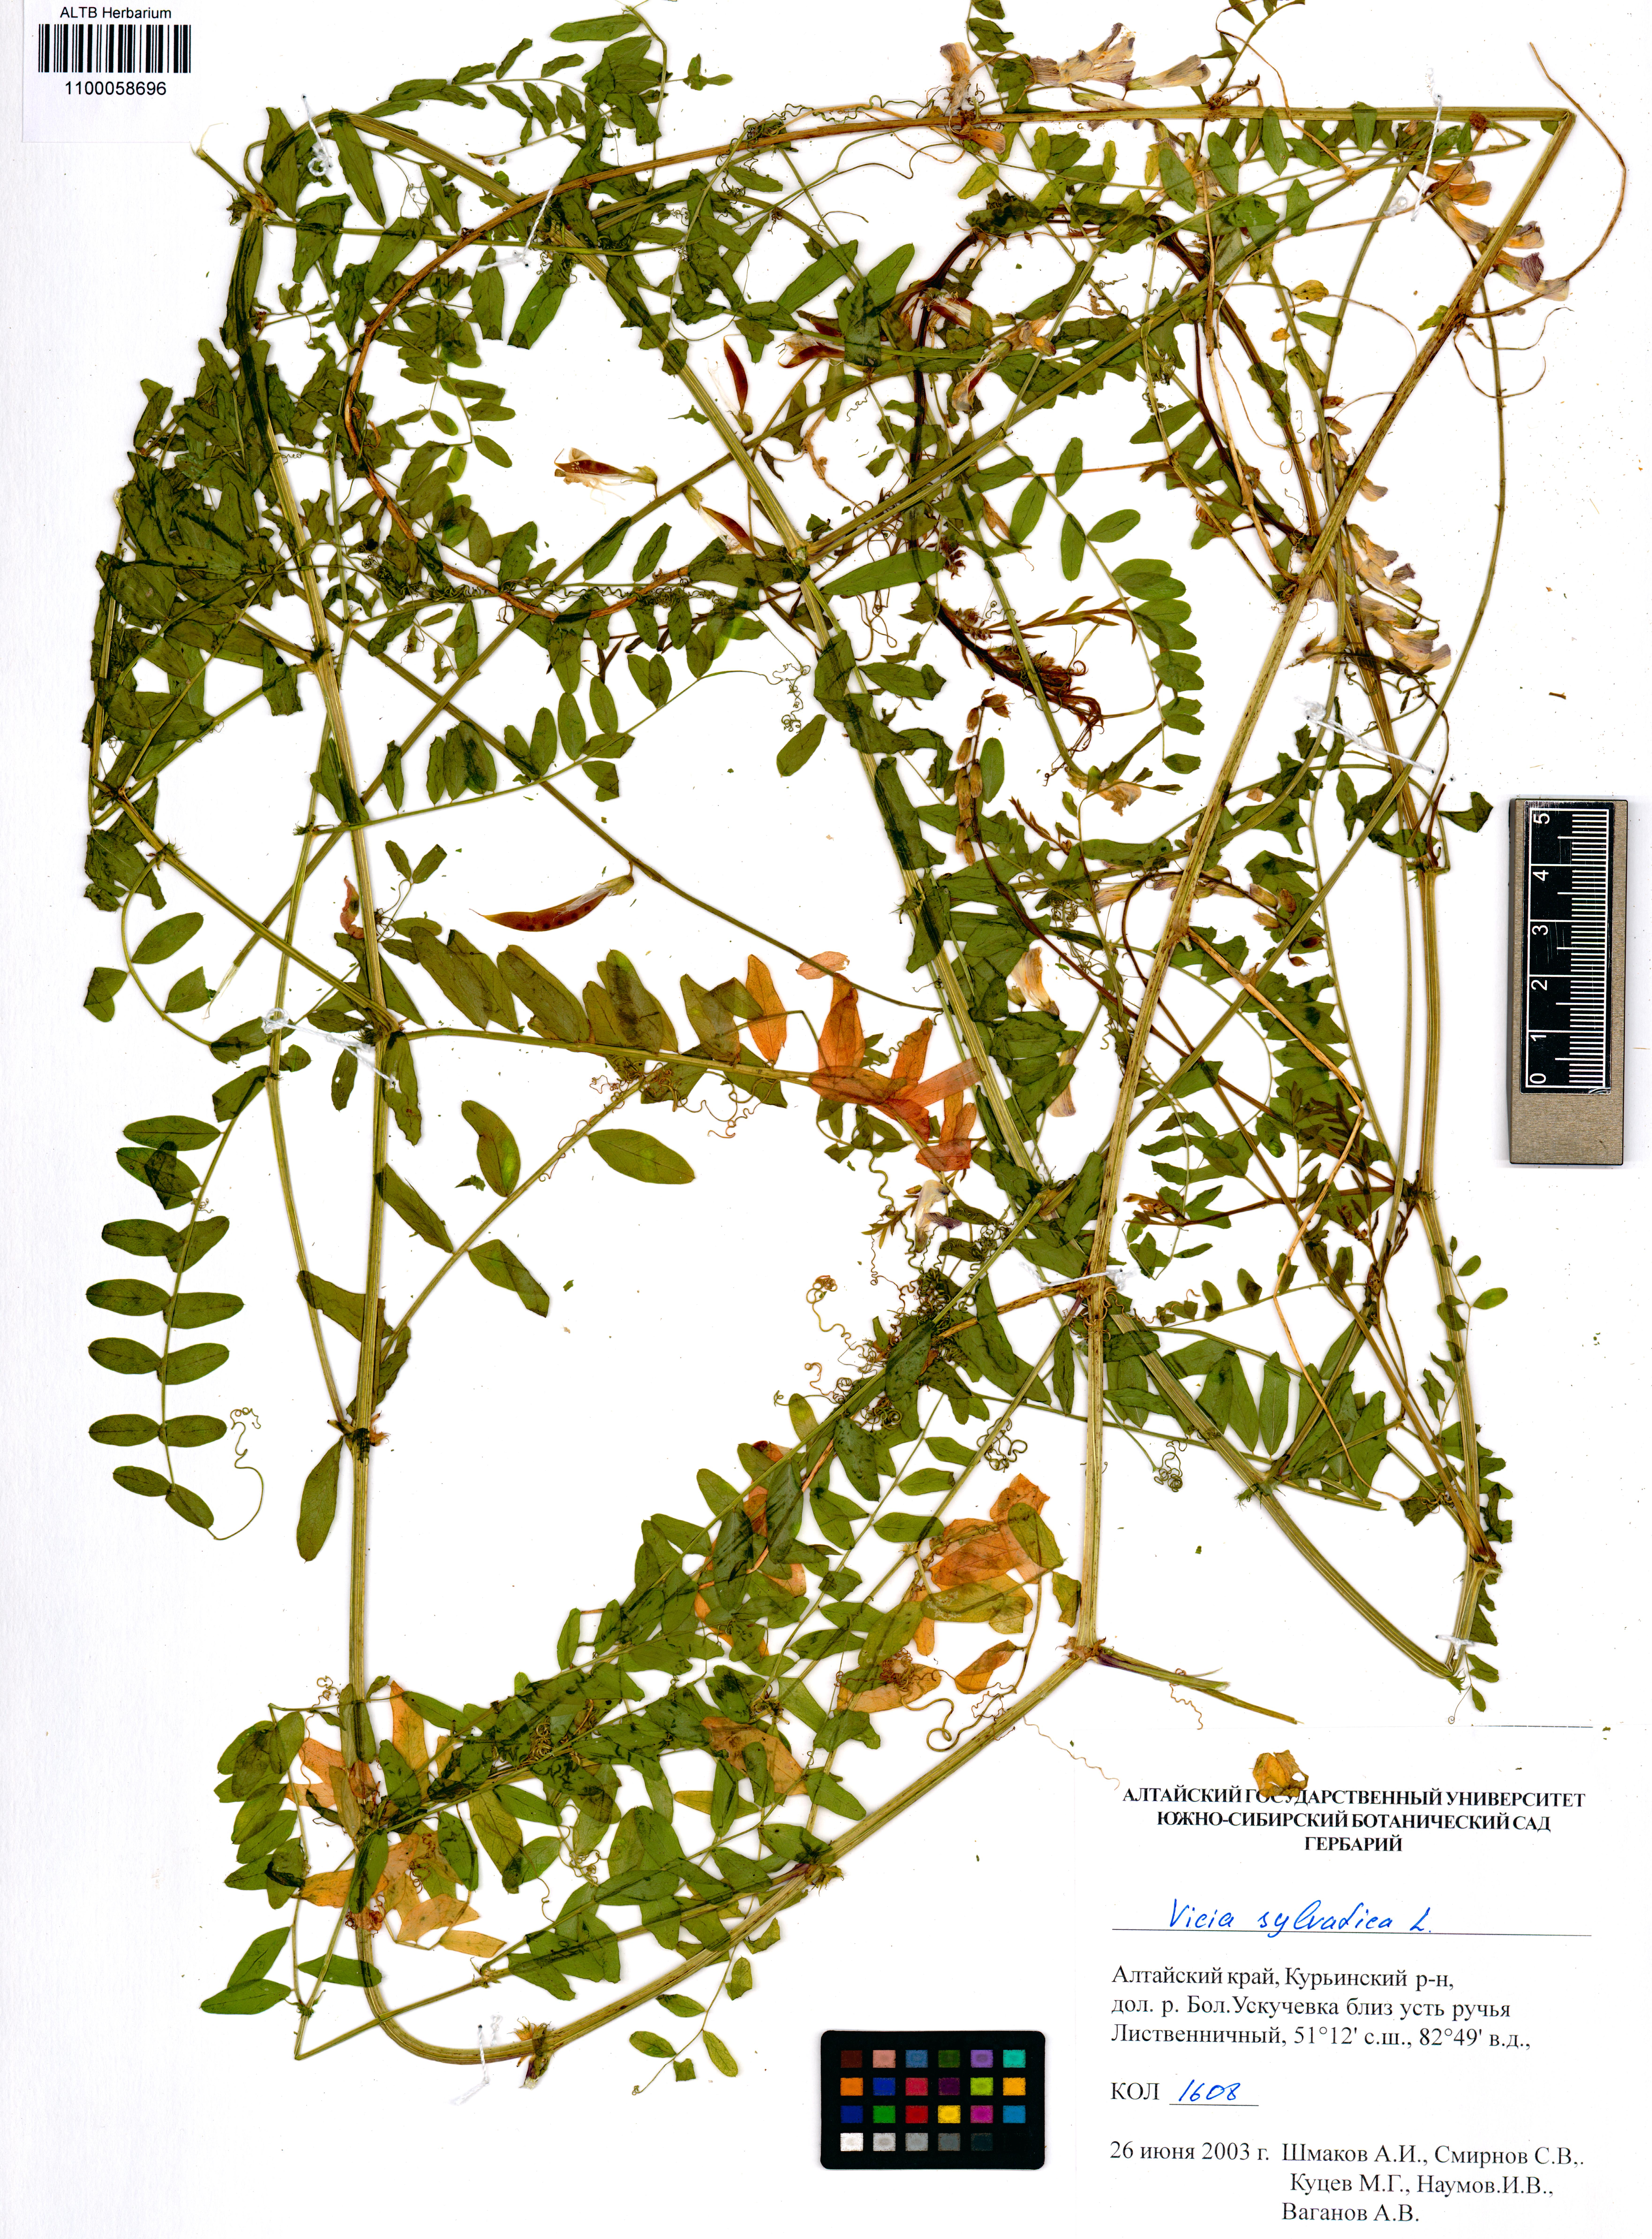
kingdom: Plantae
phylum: Tracheophyta
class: Magnoliopsida
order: Fabales
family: Fabaceae
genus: Vicia
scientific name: Vicia sylvatica
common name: Wood vetch
